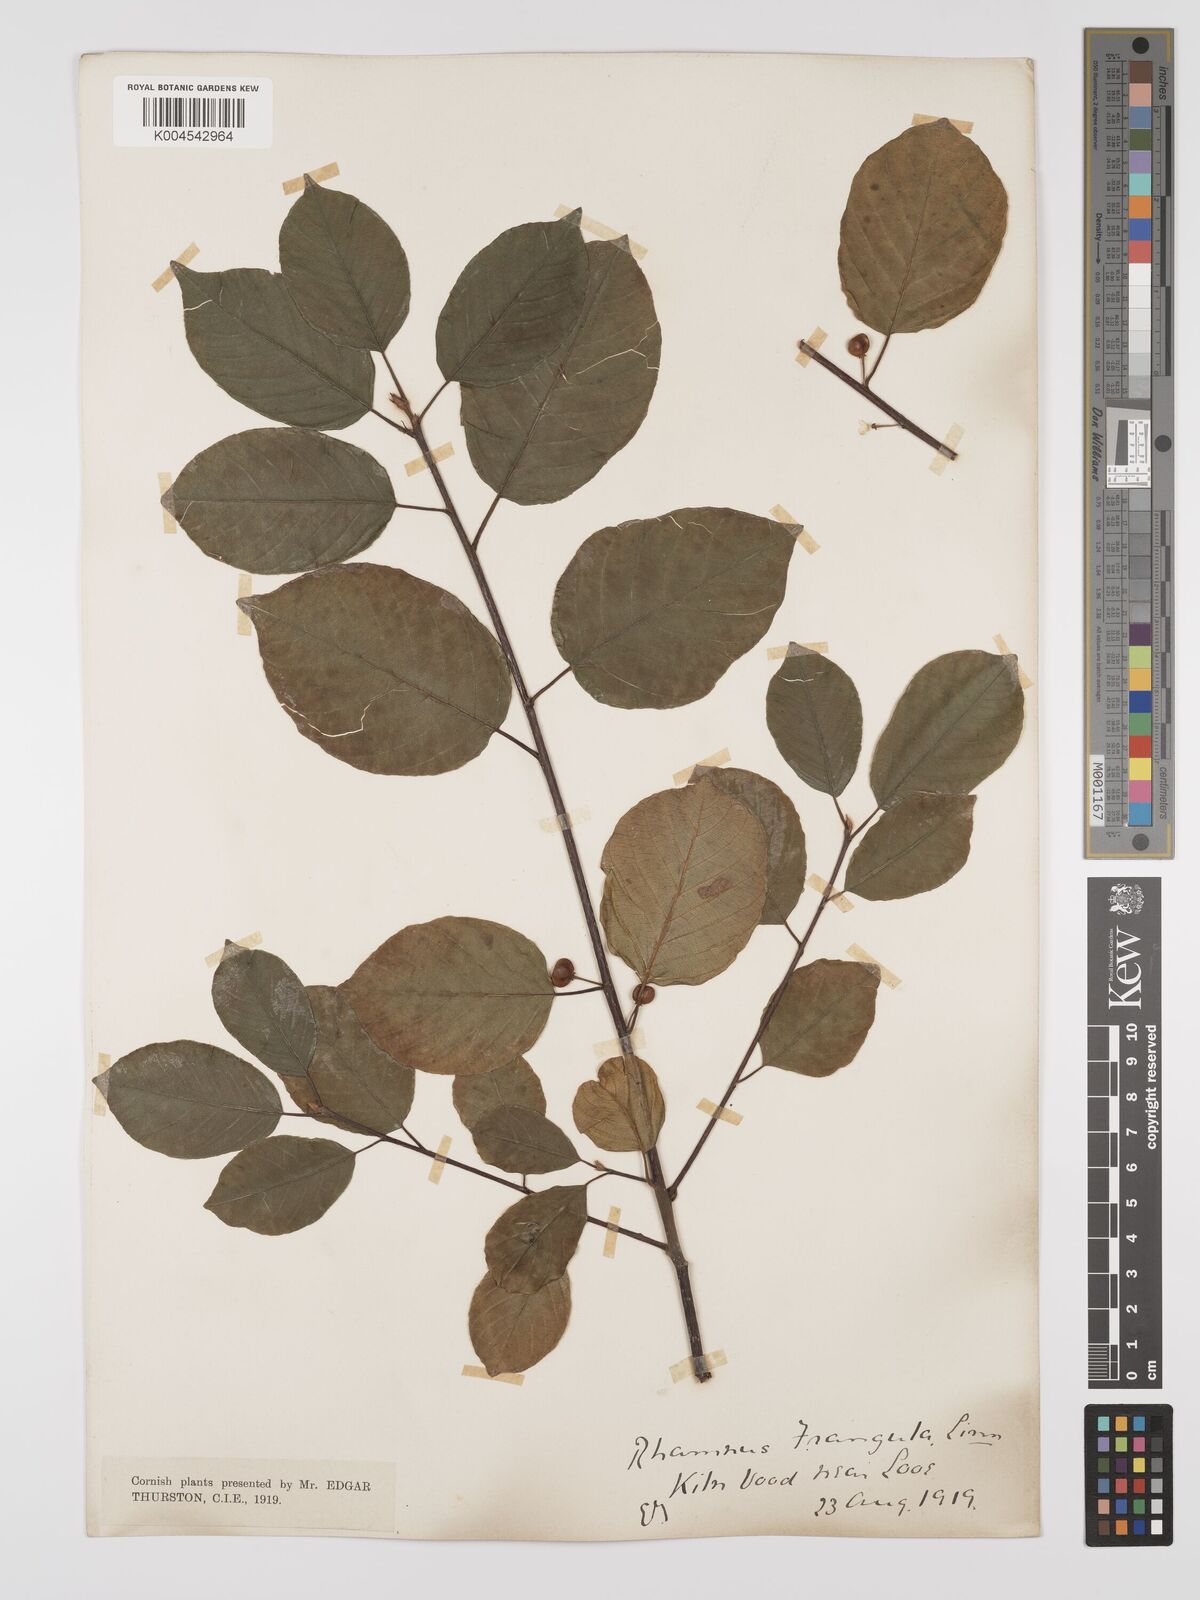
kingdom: Plantae
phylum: Tracheophyta
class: Magnoliopsida
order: Rosales
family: Rhamnaceae
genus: Frangula
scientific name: Frangula alnus
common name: Alder buckthorn
